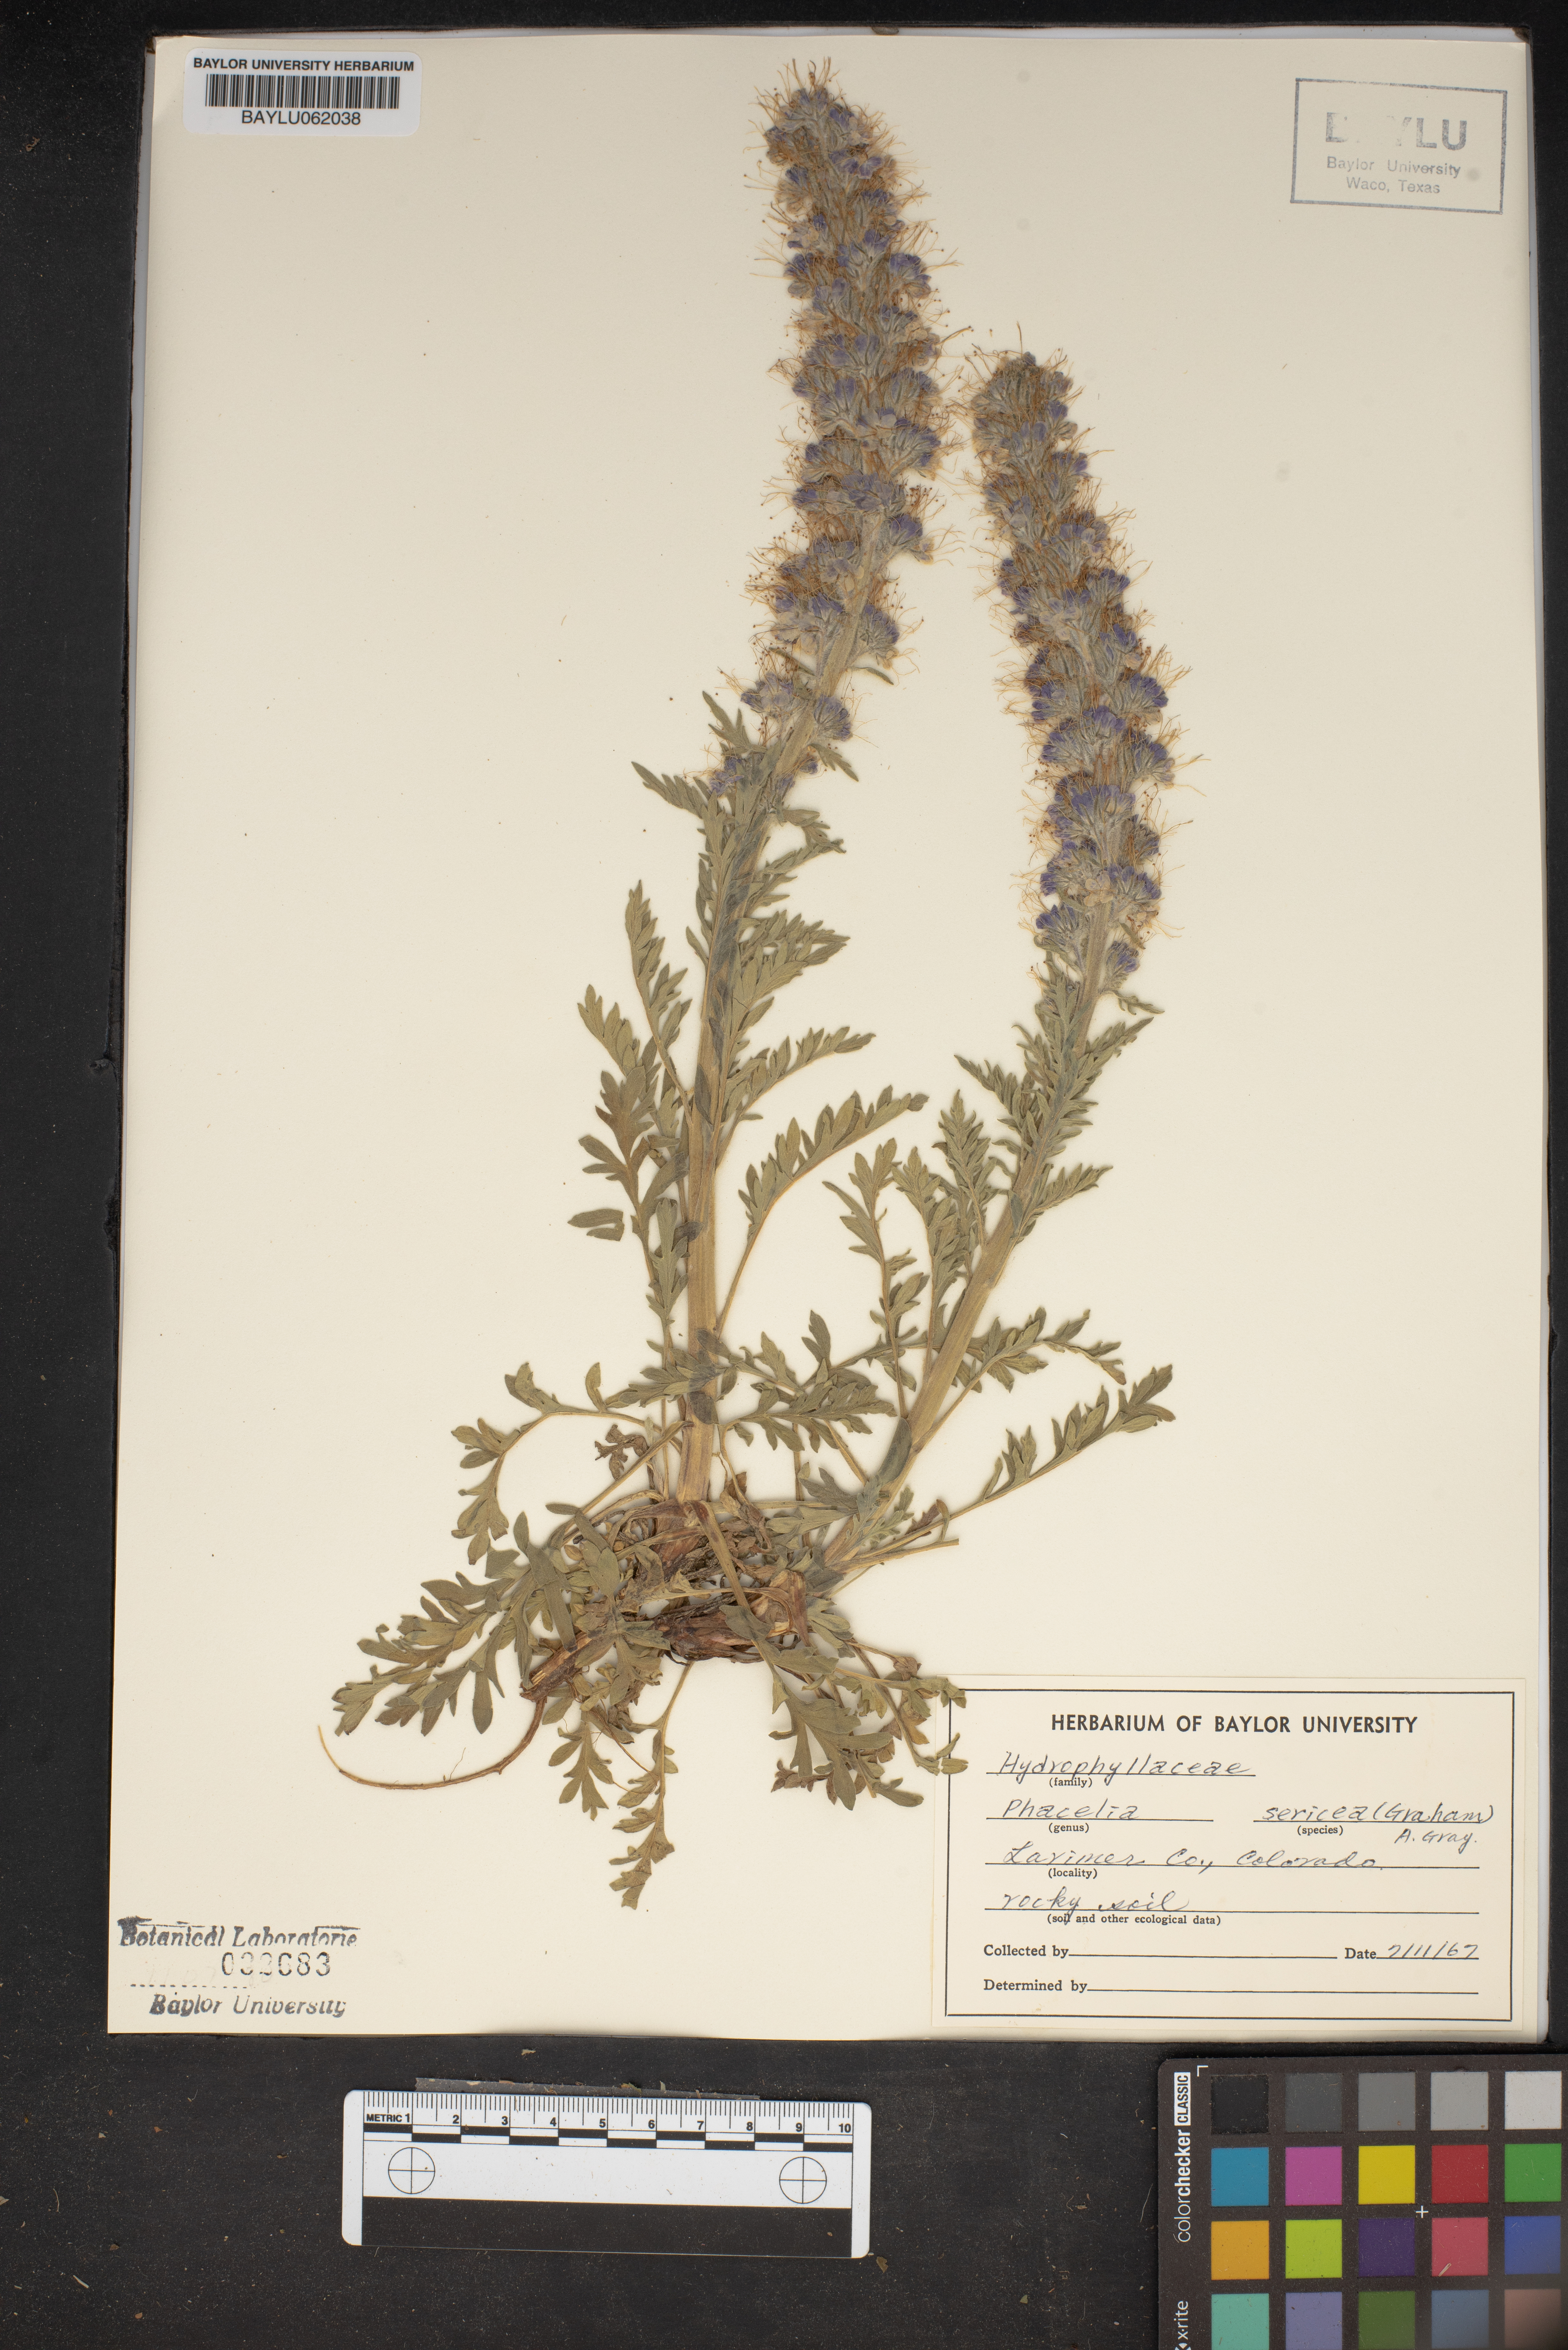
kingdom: Plantae
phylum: Tracheophyta
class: Magnoliopsida
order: Boraginales
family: Hydrophyllaceae
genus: Phacelia
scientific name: Phacelia sericea
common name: Silky phacelia
